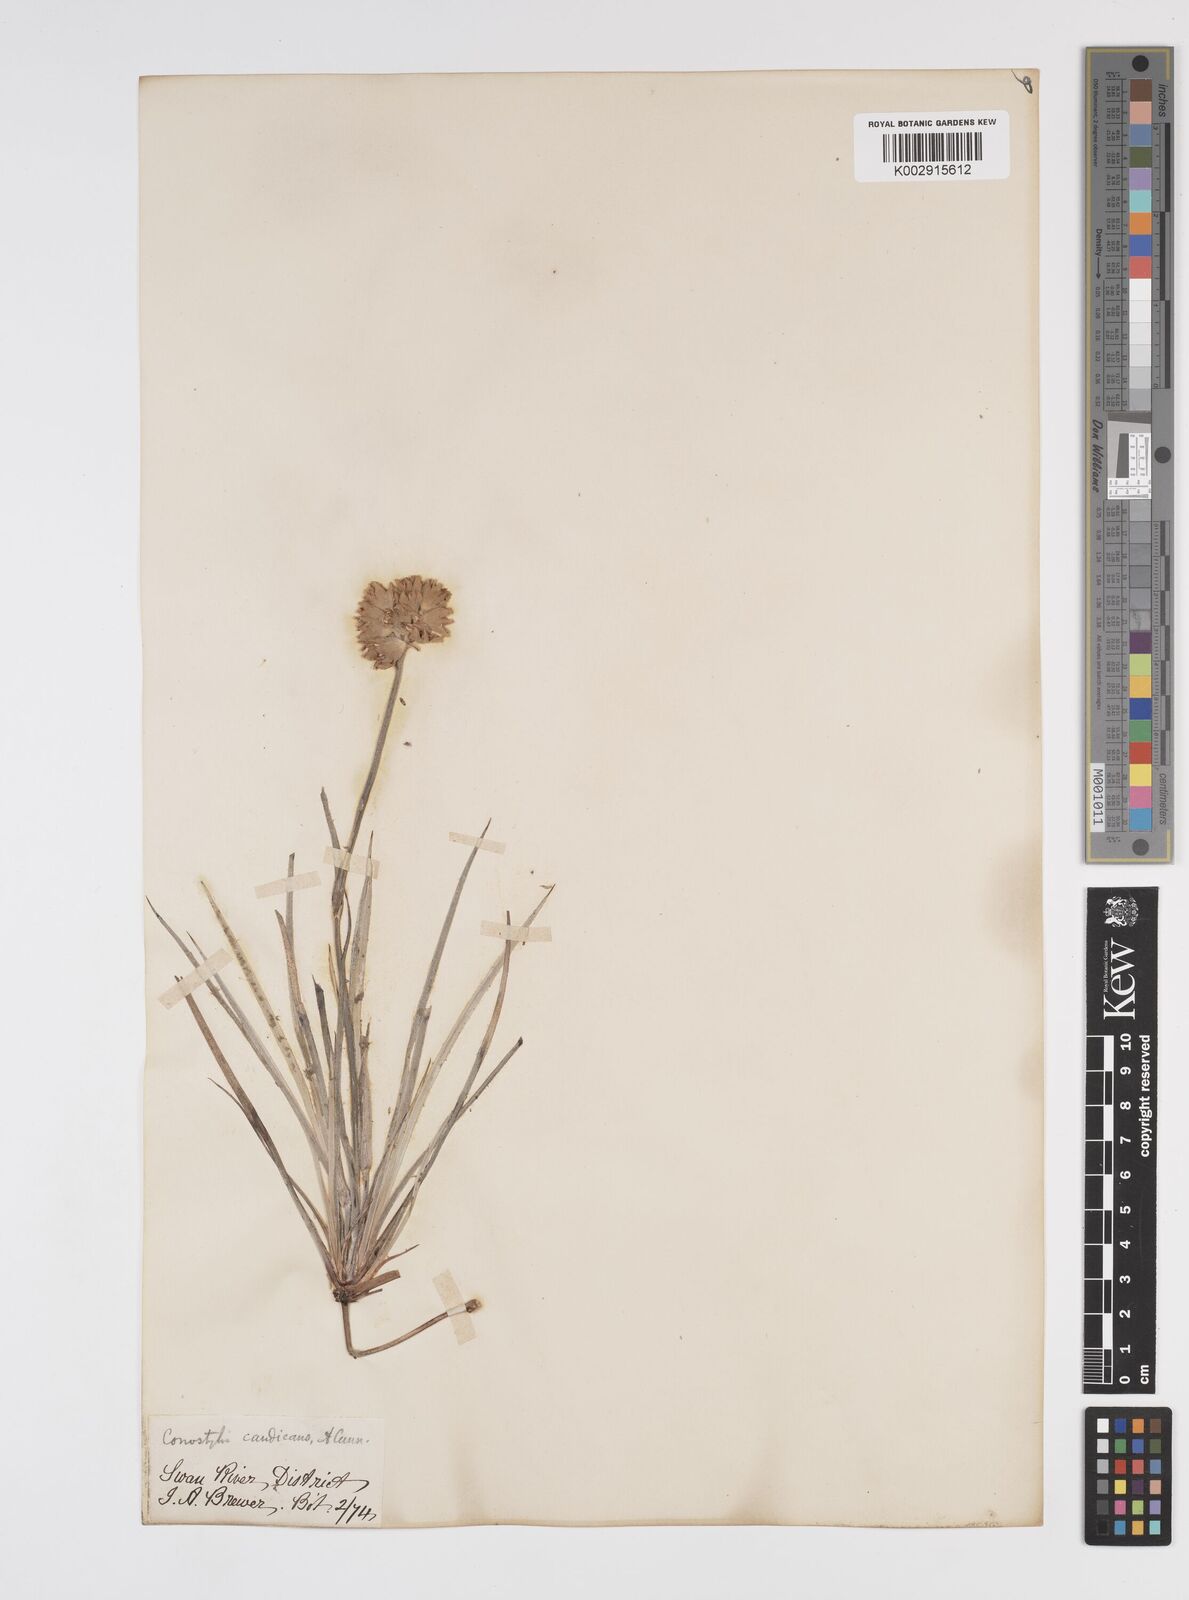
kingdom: Plantae
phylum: Tracheophyta
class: Liliopsida
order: Commelinales
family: Haemodoraceae
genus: Conostylis
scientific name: Conostylis candicans
